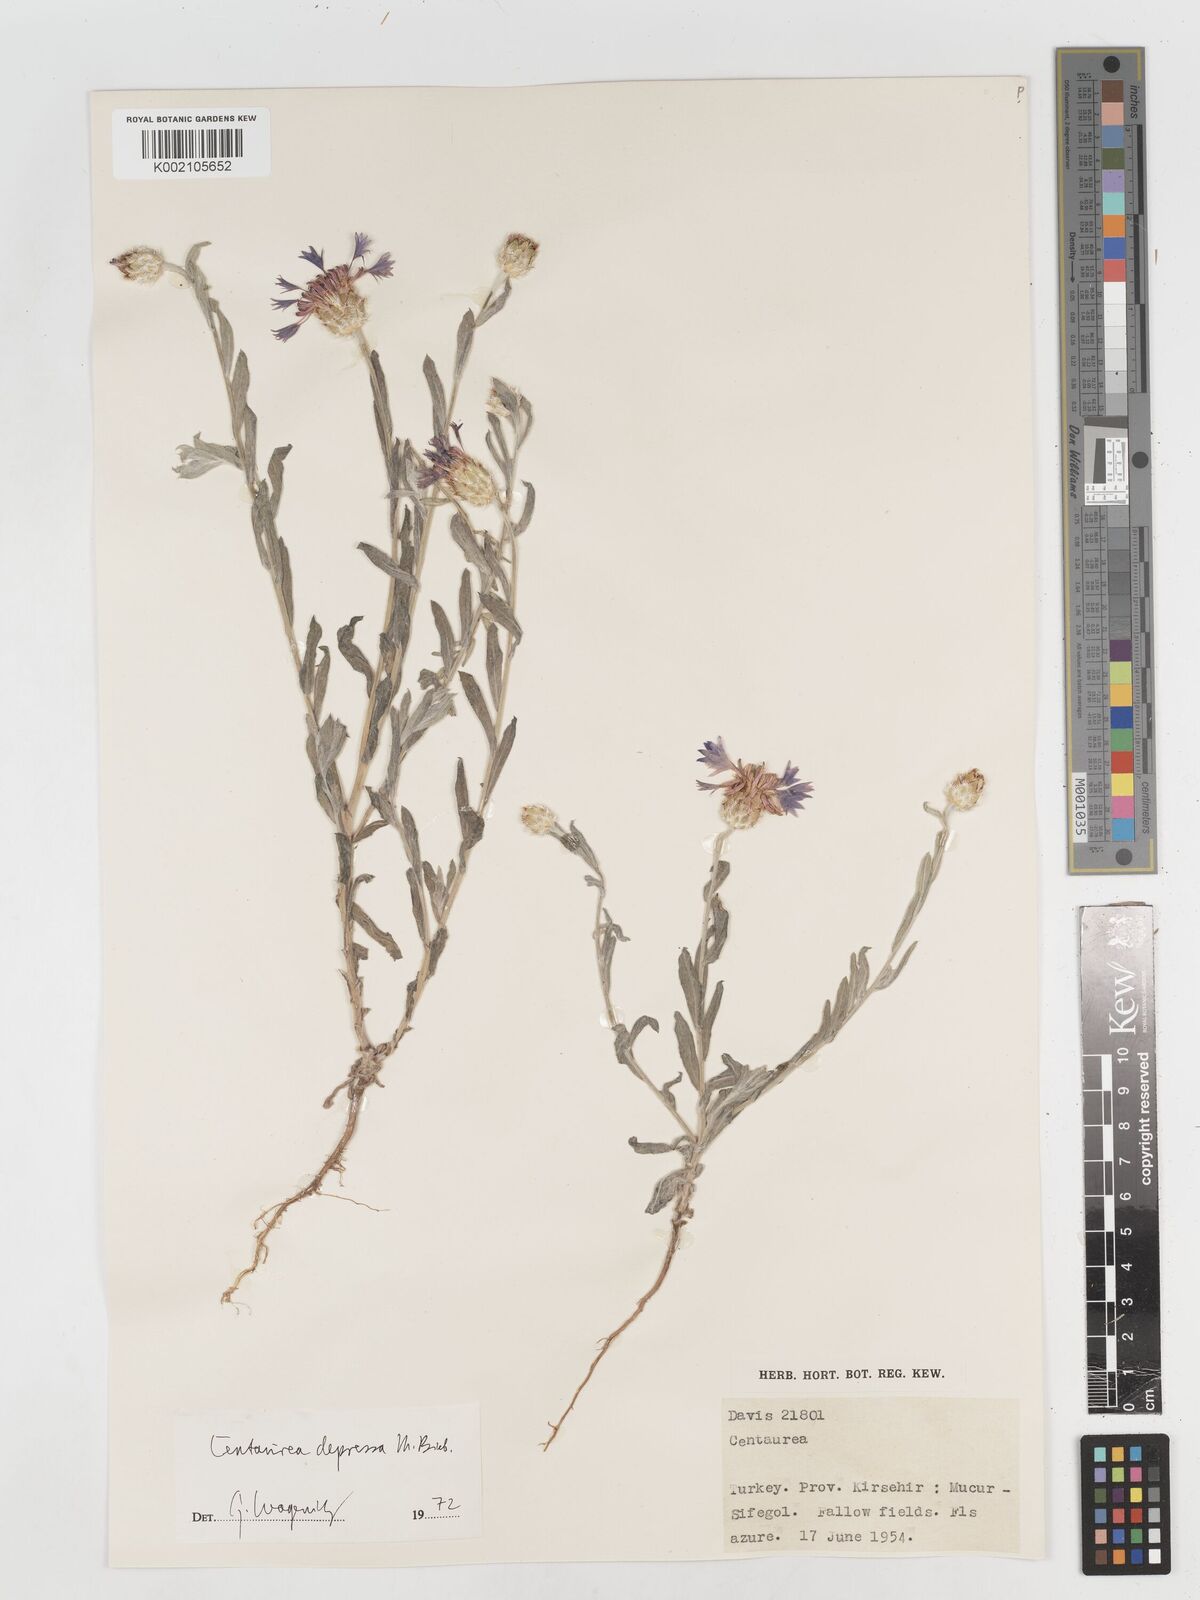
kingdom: Plantae
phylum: Tracheophyta
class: Magnoliopsida
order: Asterales
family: Asteraceae
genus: Centaurea
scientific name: Centaurea depressa
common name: Iranian knapweed
